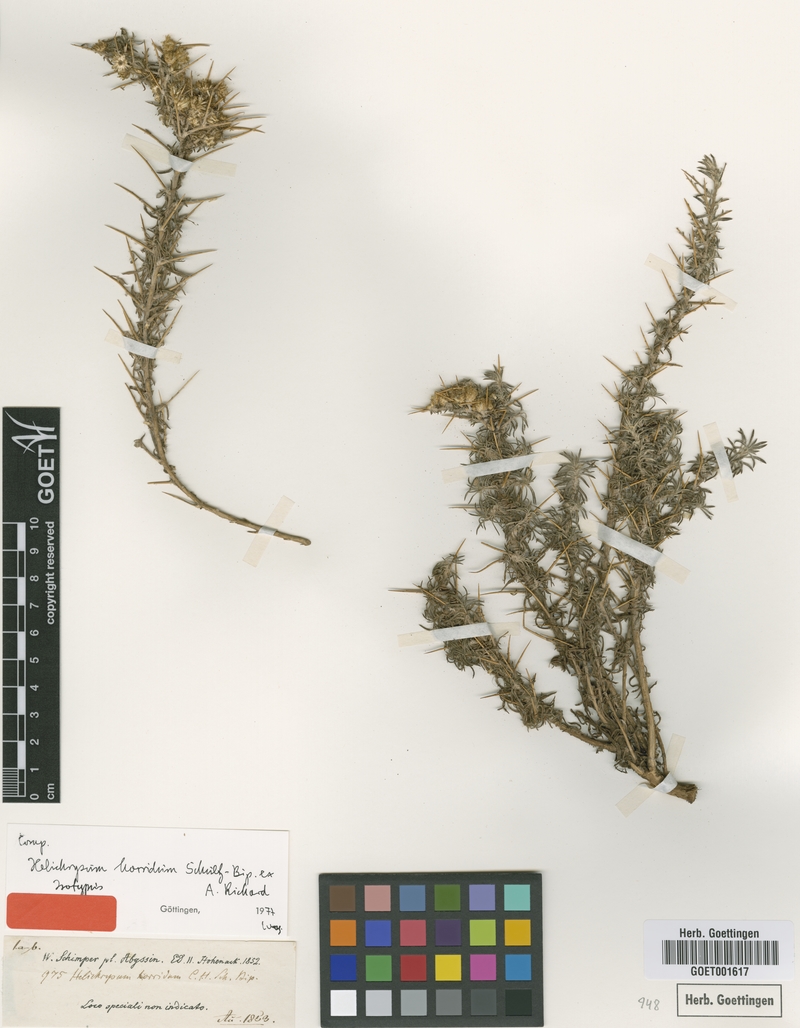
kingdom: Plantae
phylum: Tracheophyta
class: Magnoliopsida
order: Asterales
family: Asteraceae
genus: Helichrysum
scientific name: Helichrysum horridum
